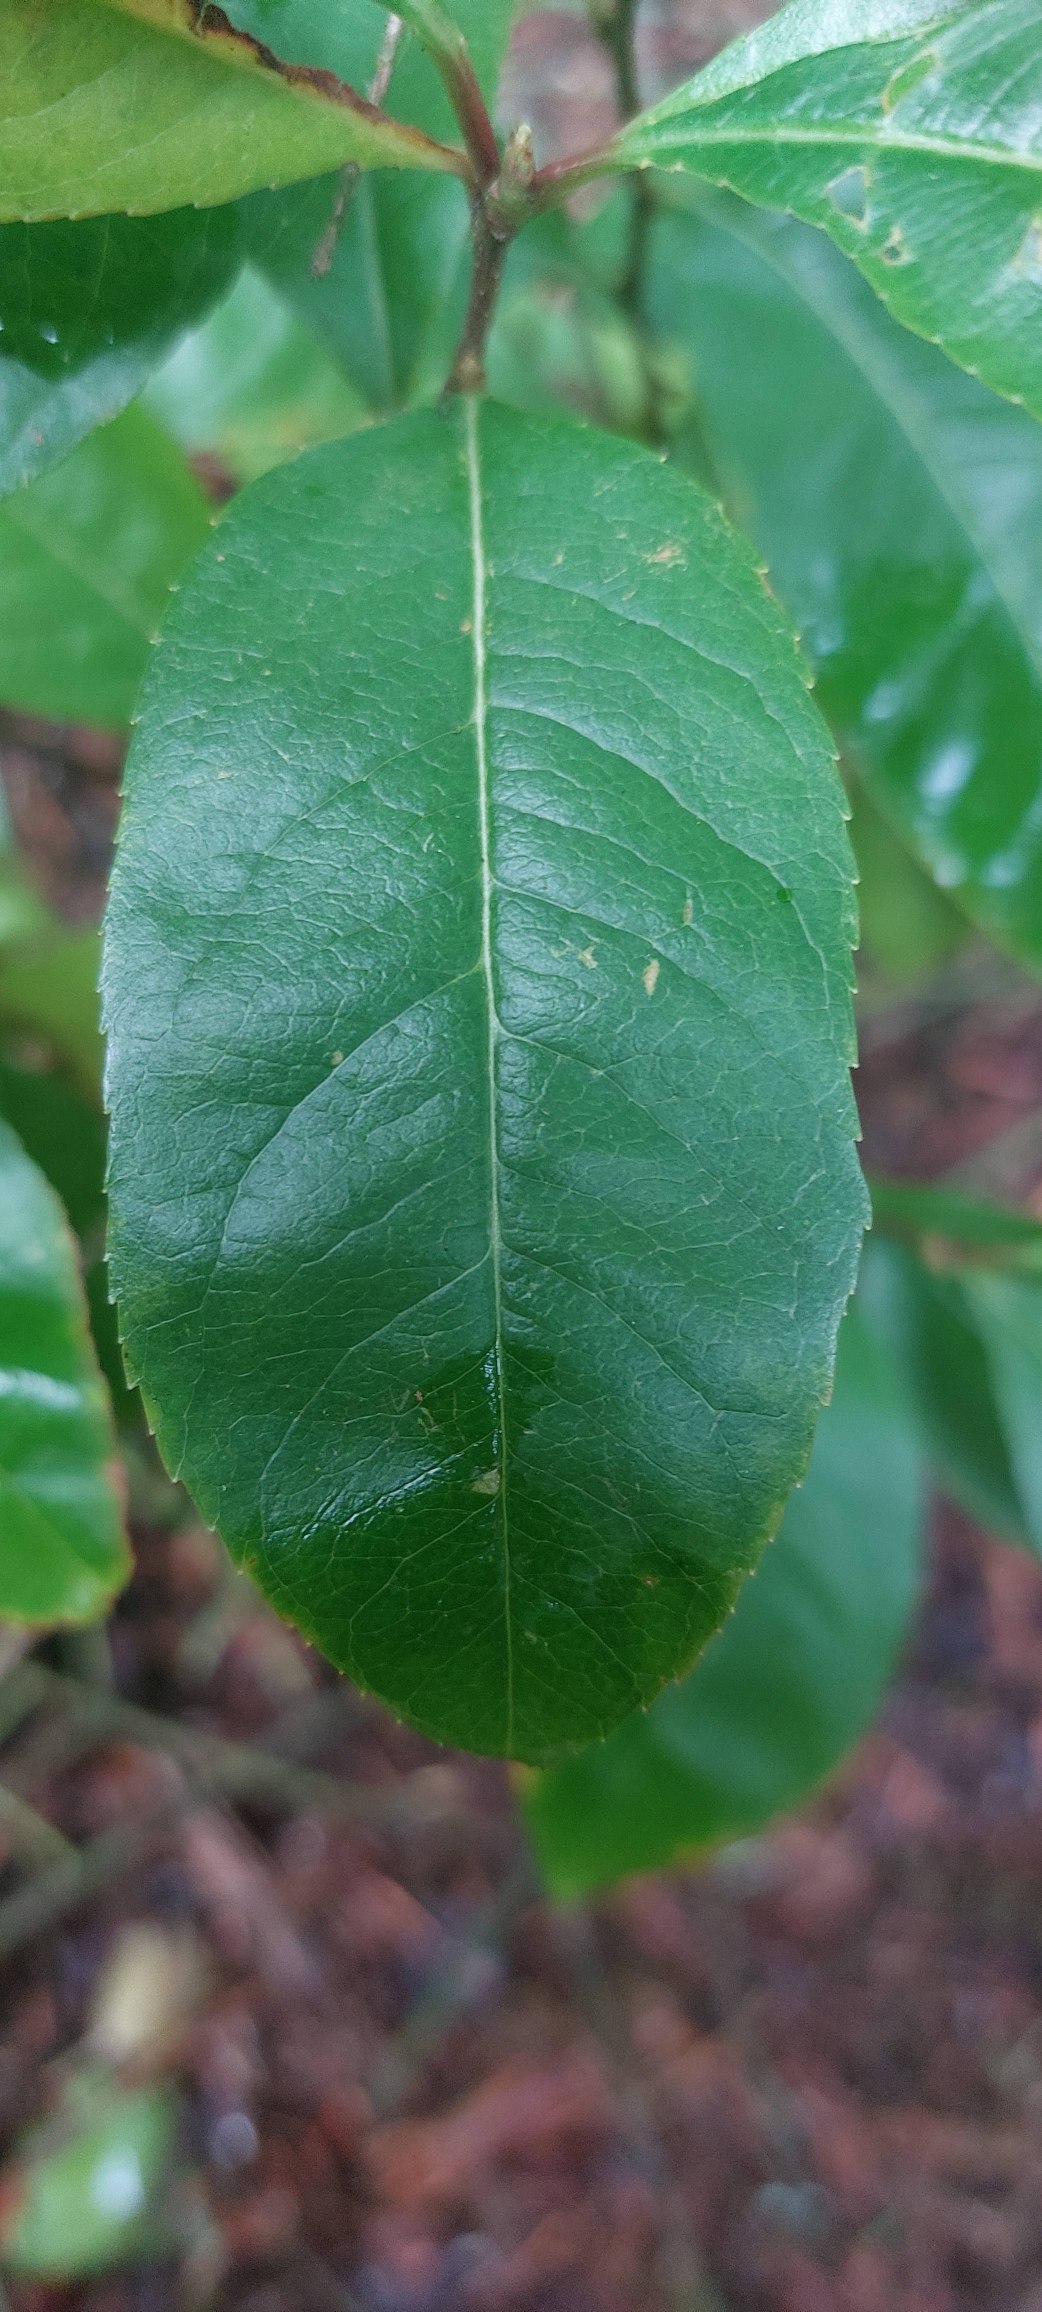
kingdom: Plantae
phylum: Tracheophyta
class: Magnoliopsida
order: Rosales
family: Rosaceae
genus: Prunus
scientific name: Prunus serotina
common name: Glansbladet hæg
